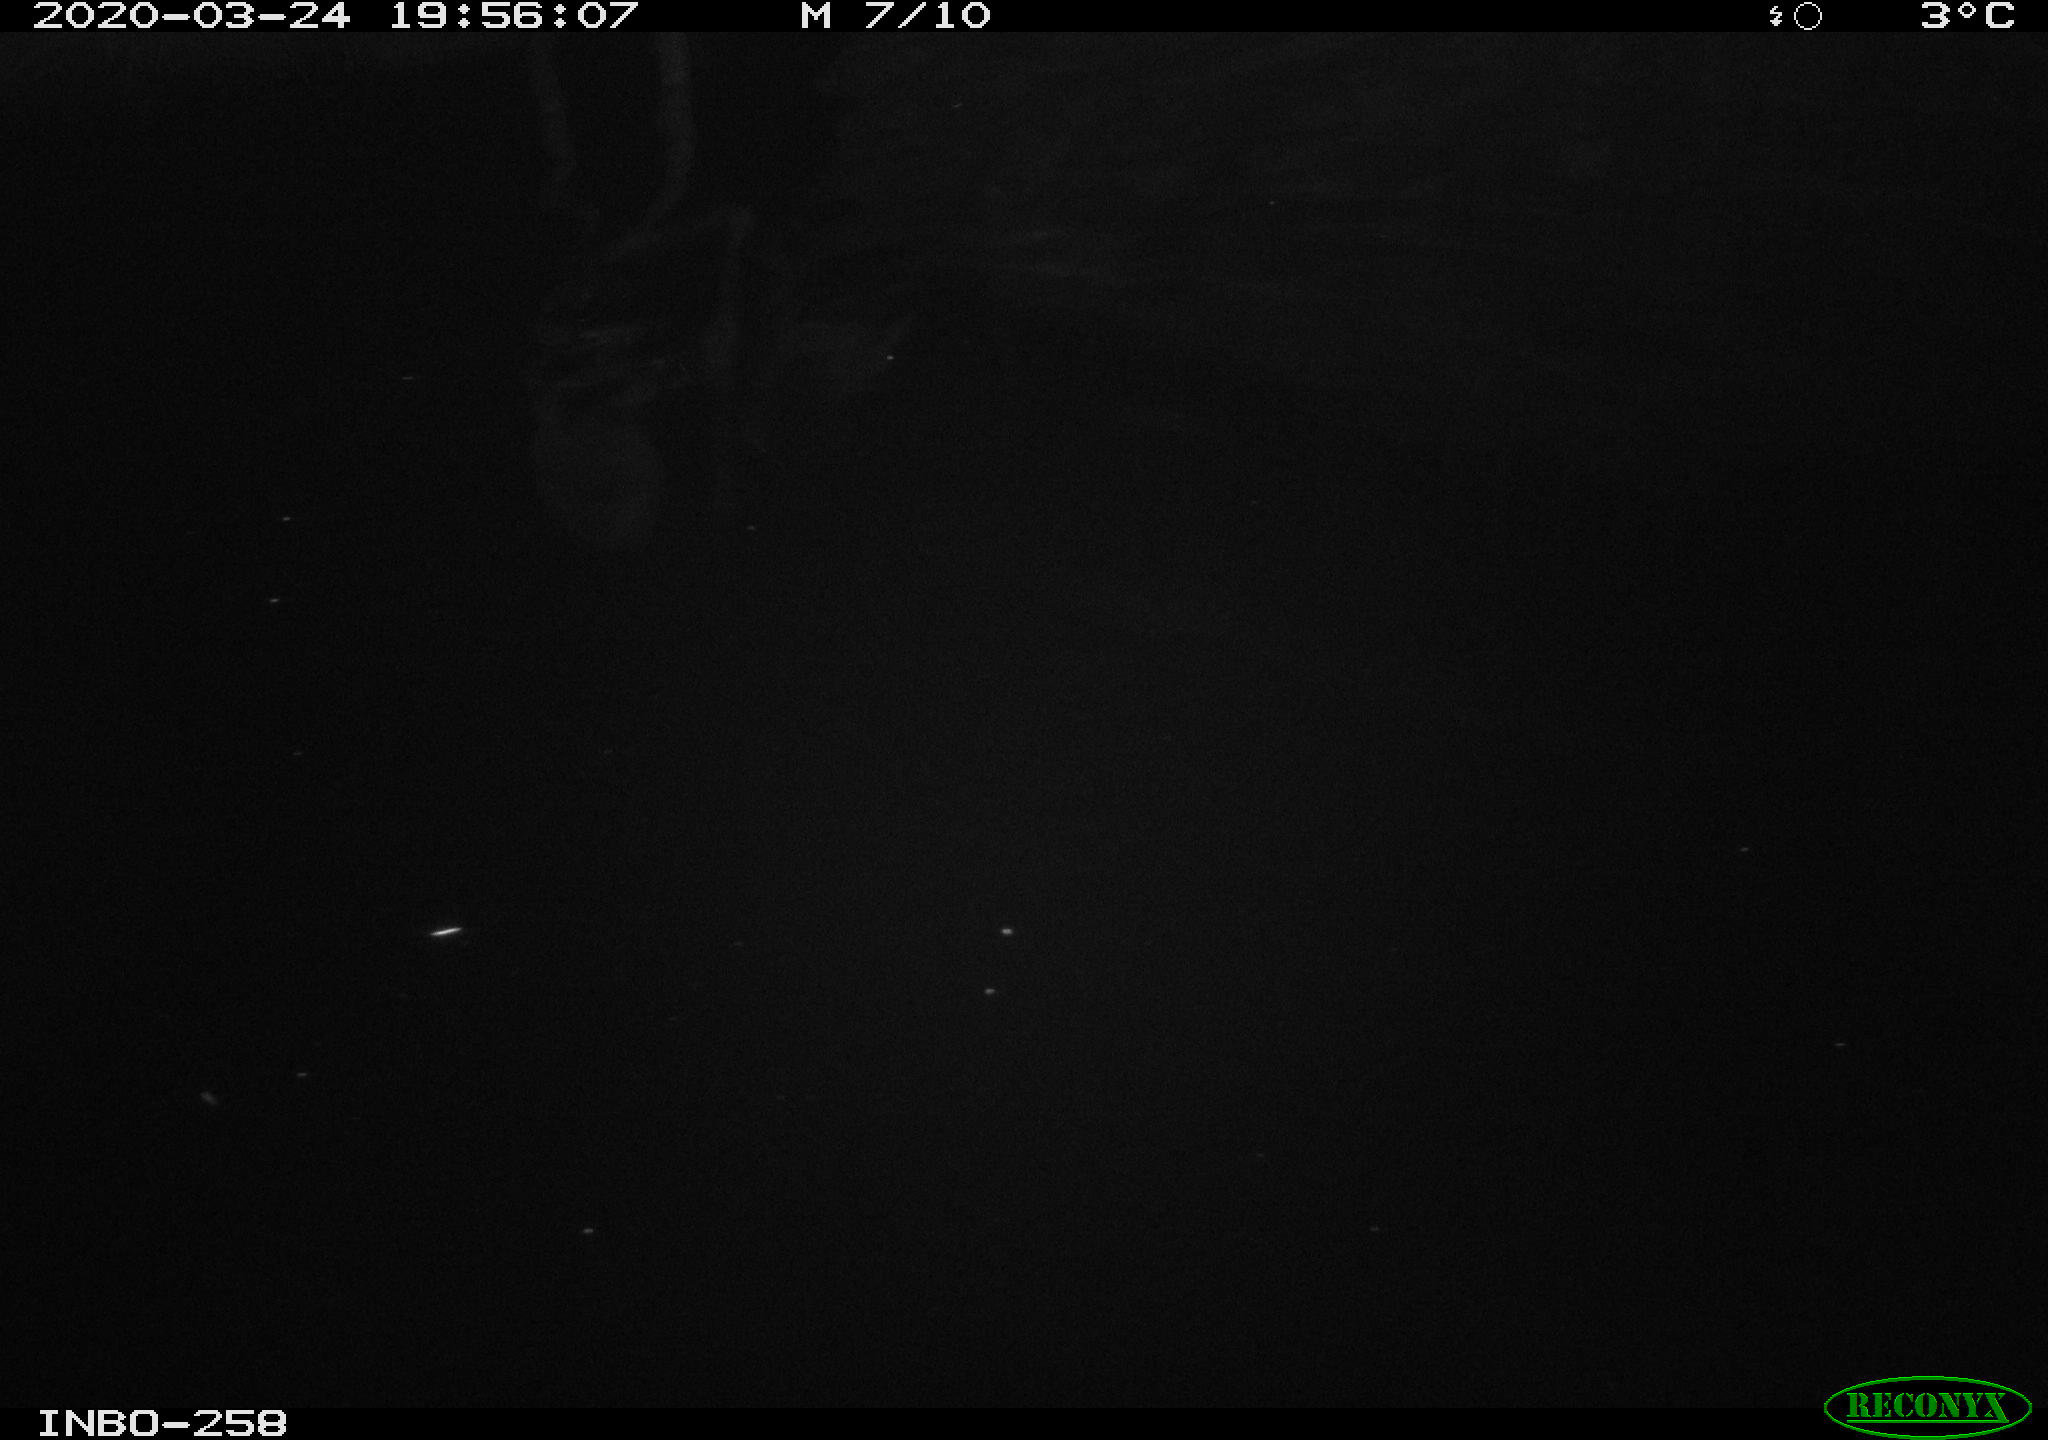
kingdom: Animalia
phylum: Chordata
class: Aves
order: Anseriformes
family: Anatidae
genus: Anas
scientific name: Anas platyrhynchos
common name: Mallard
